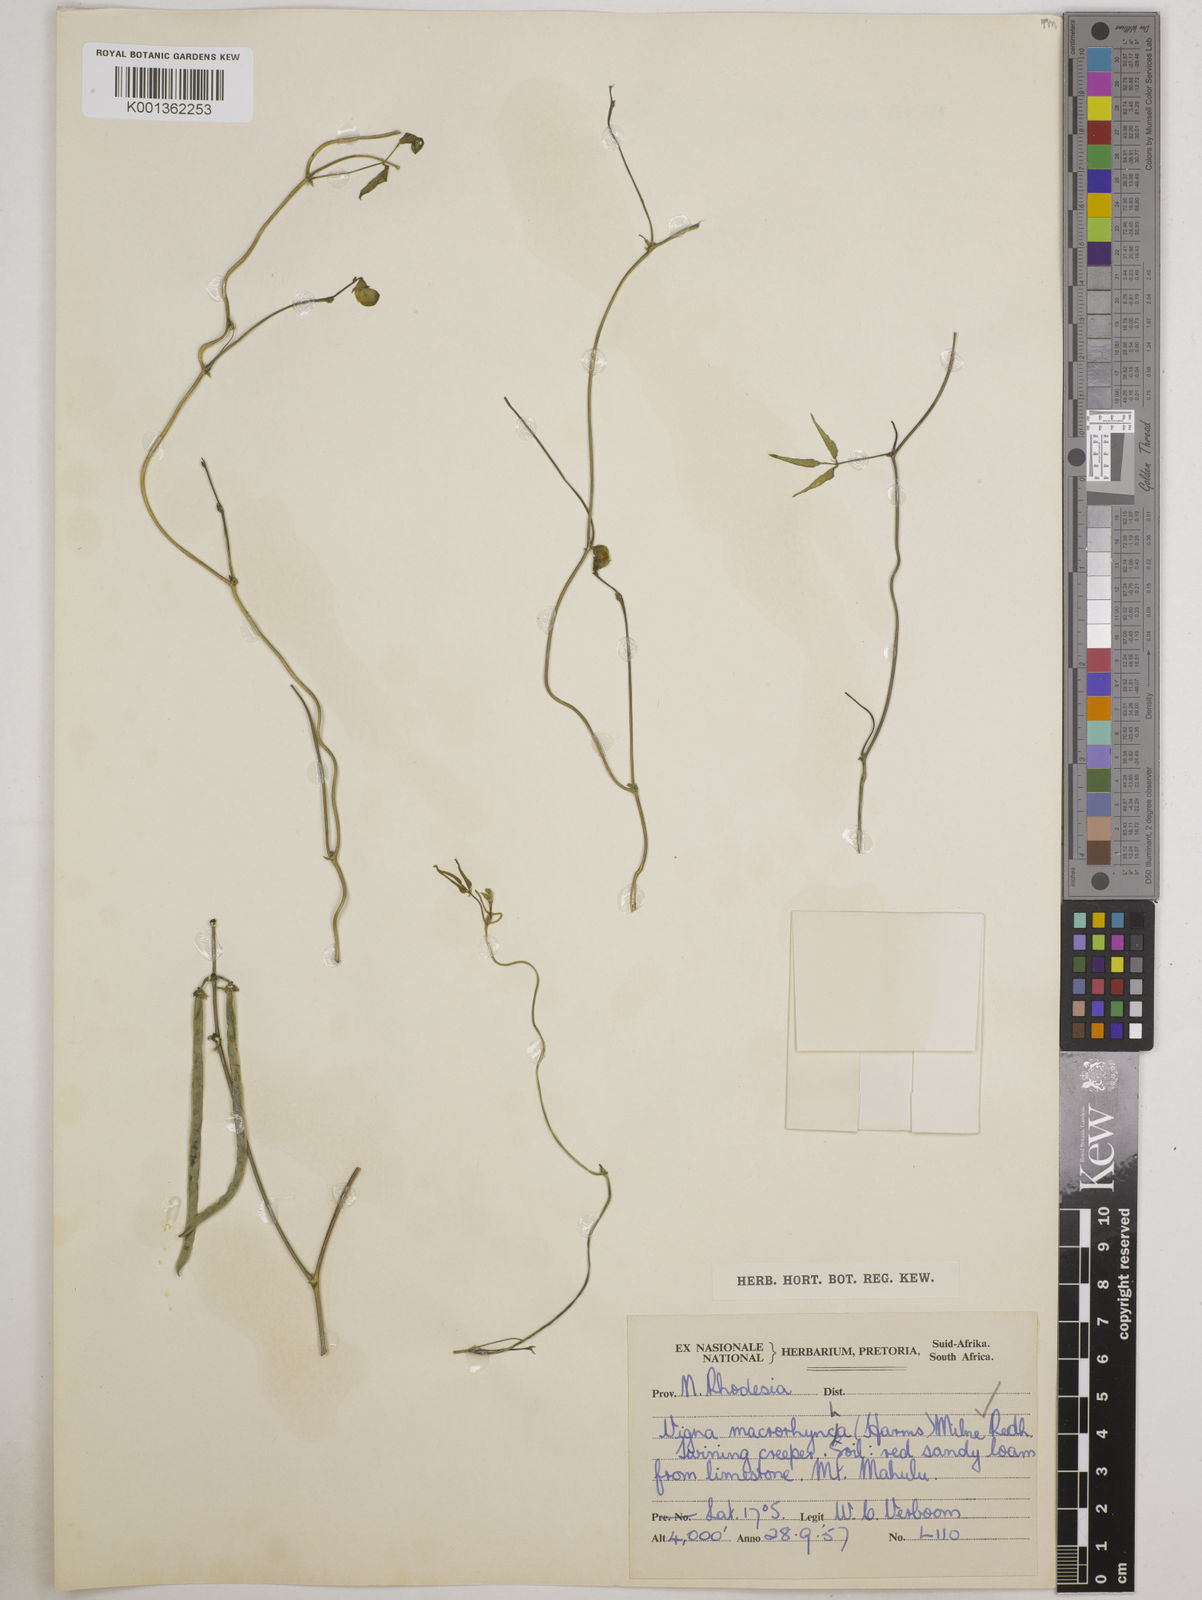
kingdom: Plantae
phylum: Tracheophyta
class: Magnoliopsida
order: Fabales
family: Fabaceae
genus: Wajira
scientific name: Wajira grahamiana
